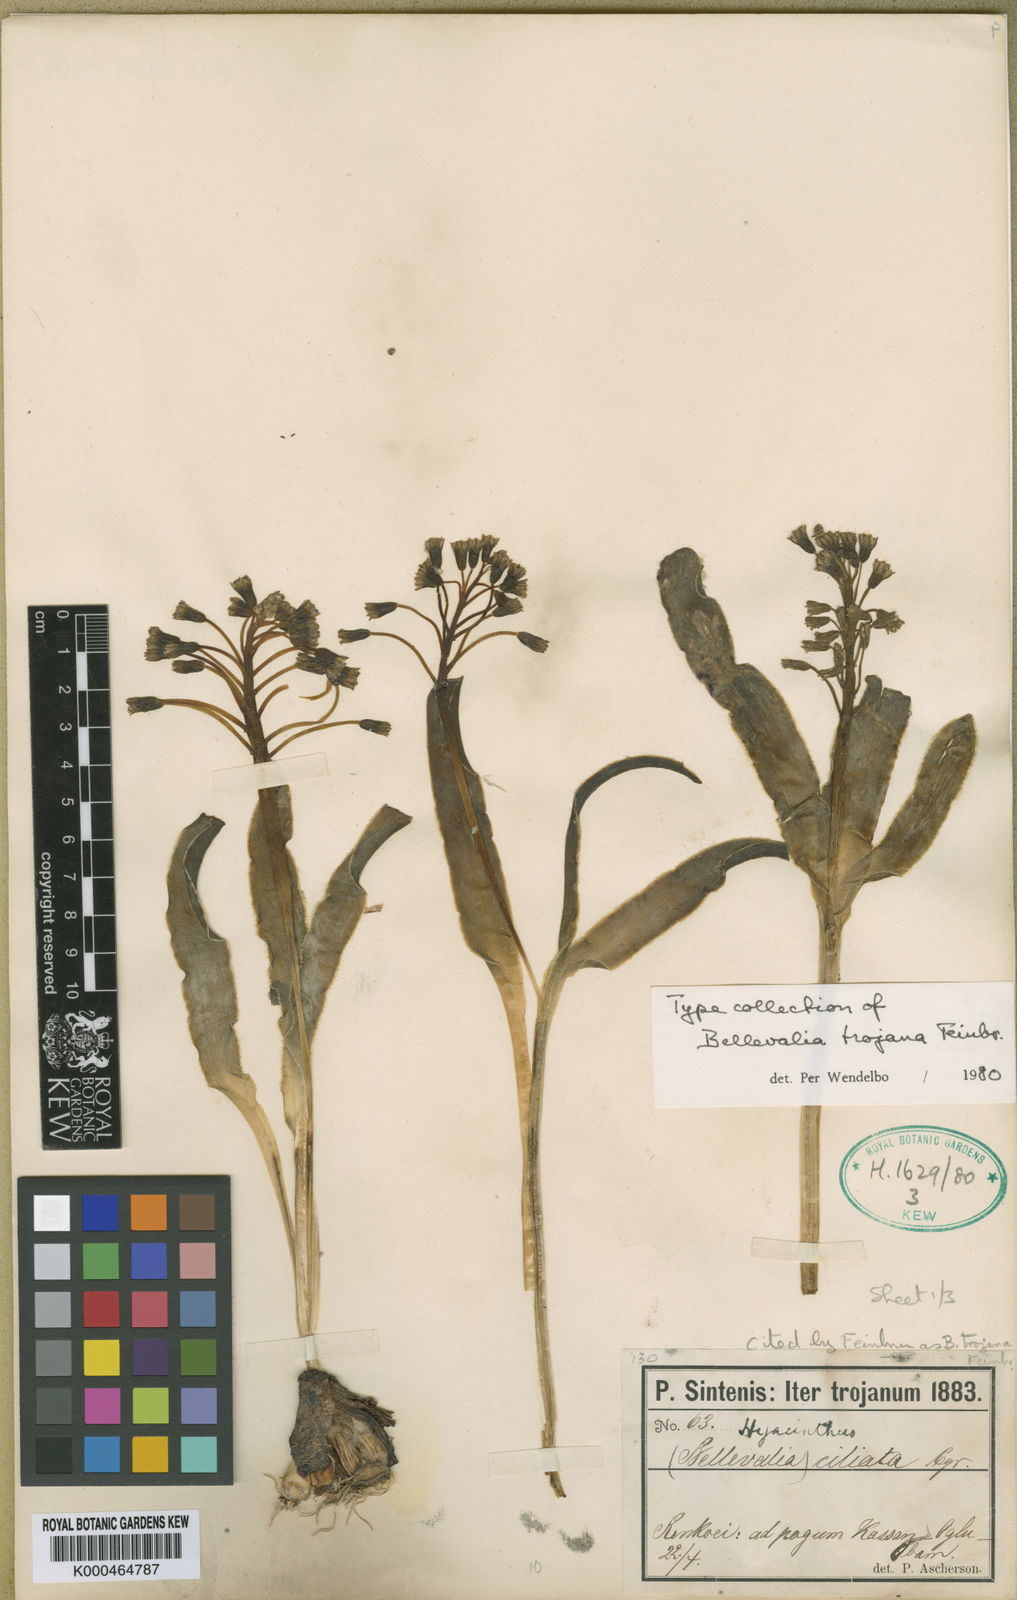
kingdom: Plantae
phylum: Tracheophyta
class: Liliopsida
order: Asparagales
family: Asparagaceae
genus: Bellevalia
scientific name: Bellevalia speciosa
